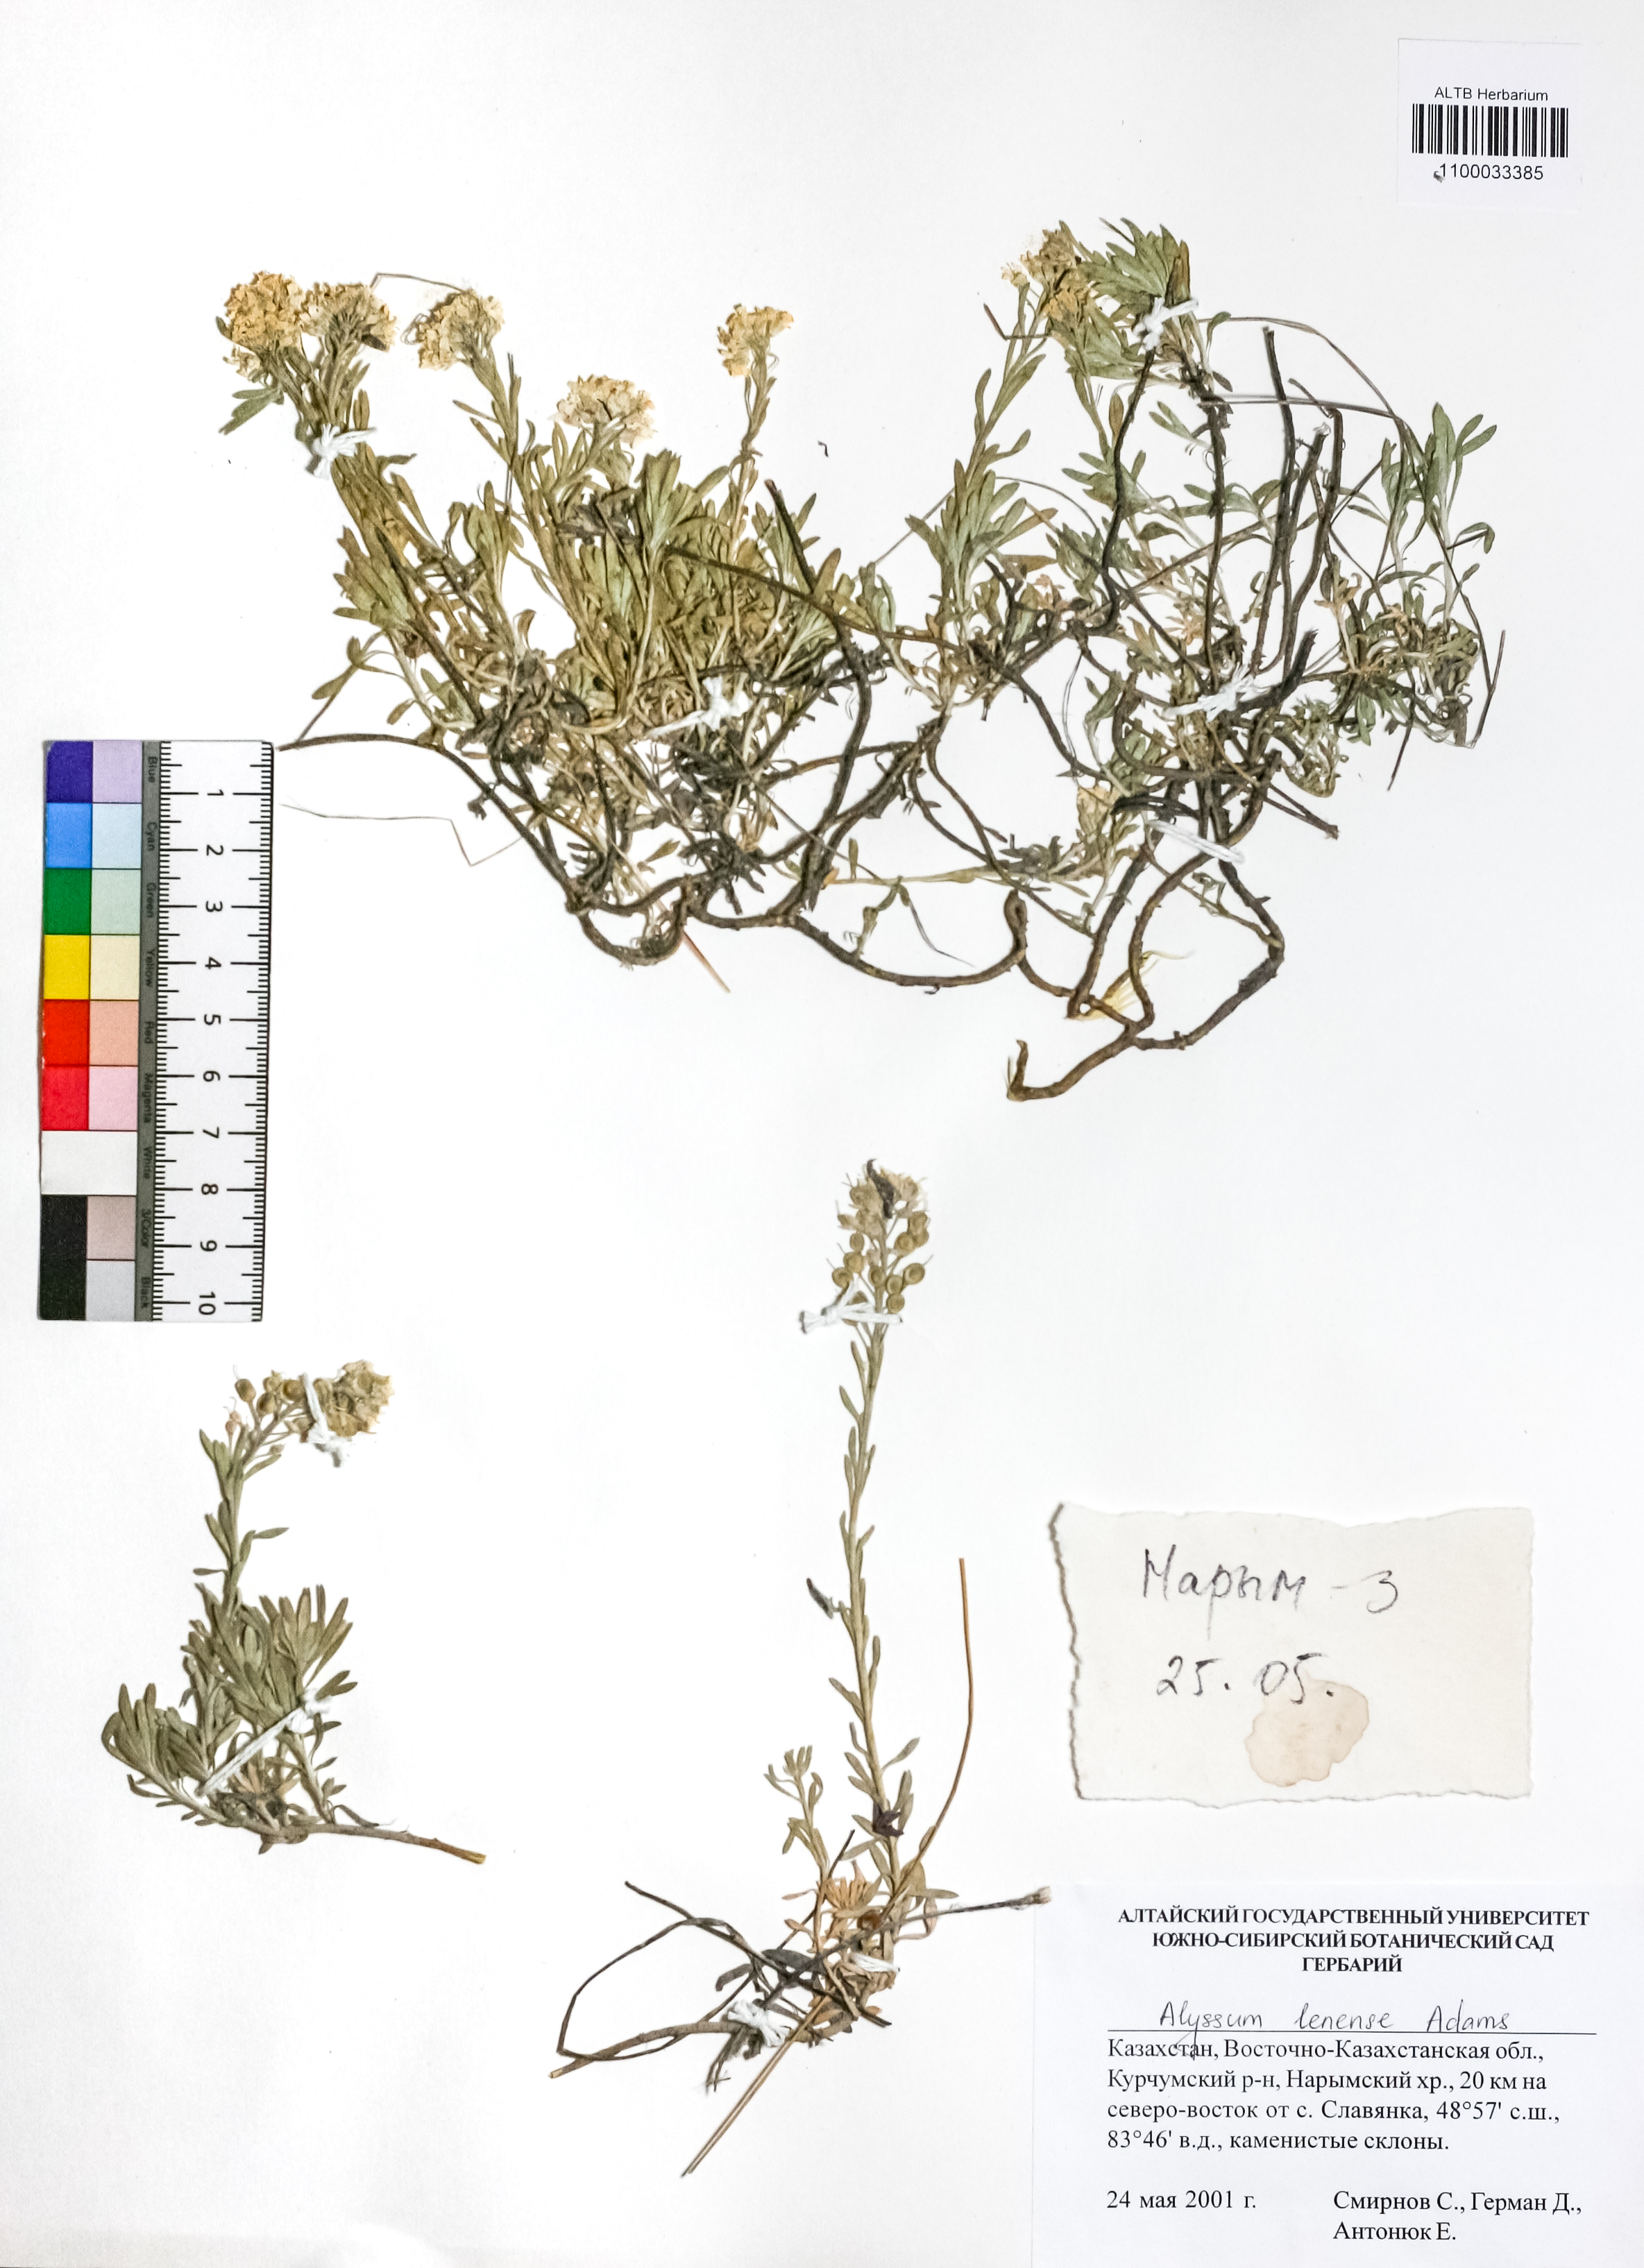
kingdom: Plantae
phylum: Tracheophyta
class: Magnoliopsida
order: Brassicales
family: Brassicaceae
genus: Alyssum
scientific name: Alyssum lenense
